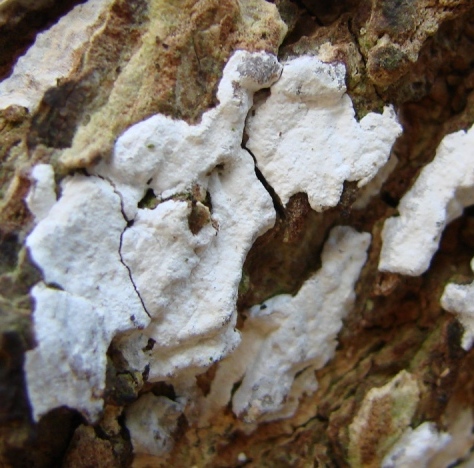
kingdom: Fungi
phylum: Basidiomycota
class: Agaricomycetes
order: Corticiales
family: Corticiaceae
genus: Lyomyces
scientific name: Lyomyces crustosus
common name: vortet hyldehinde
